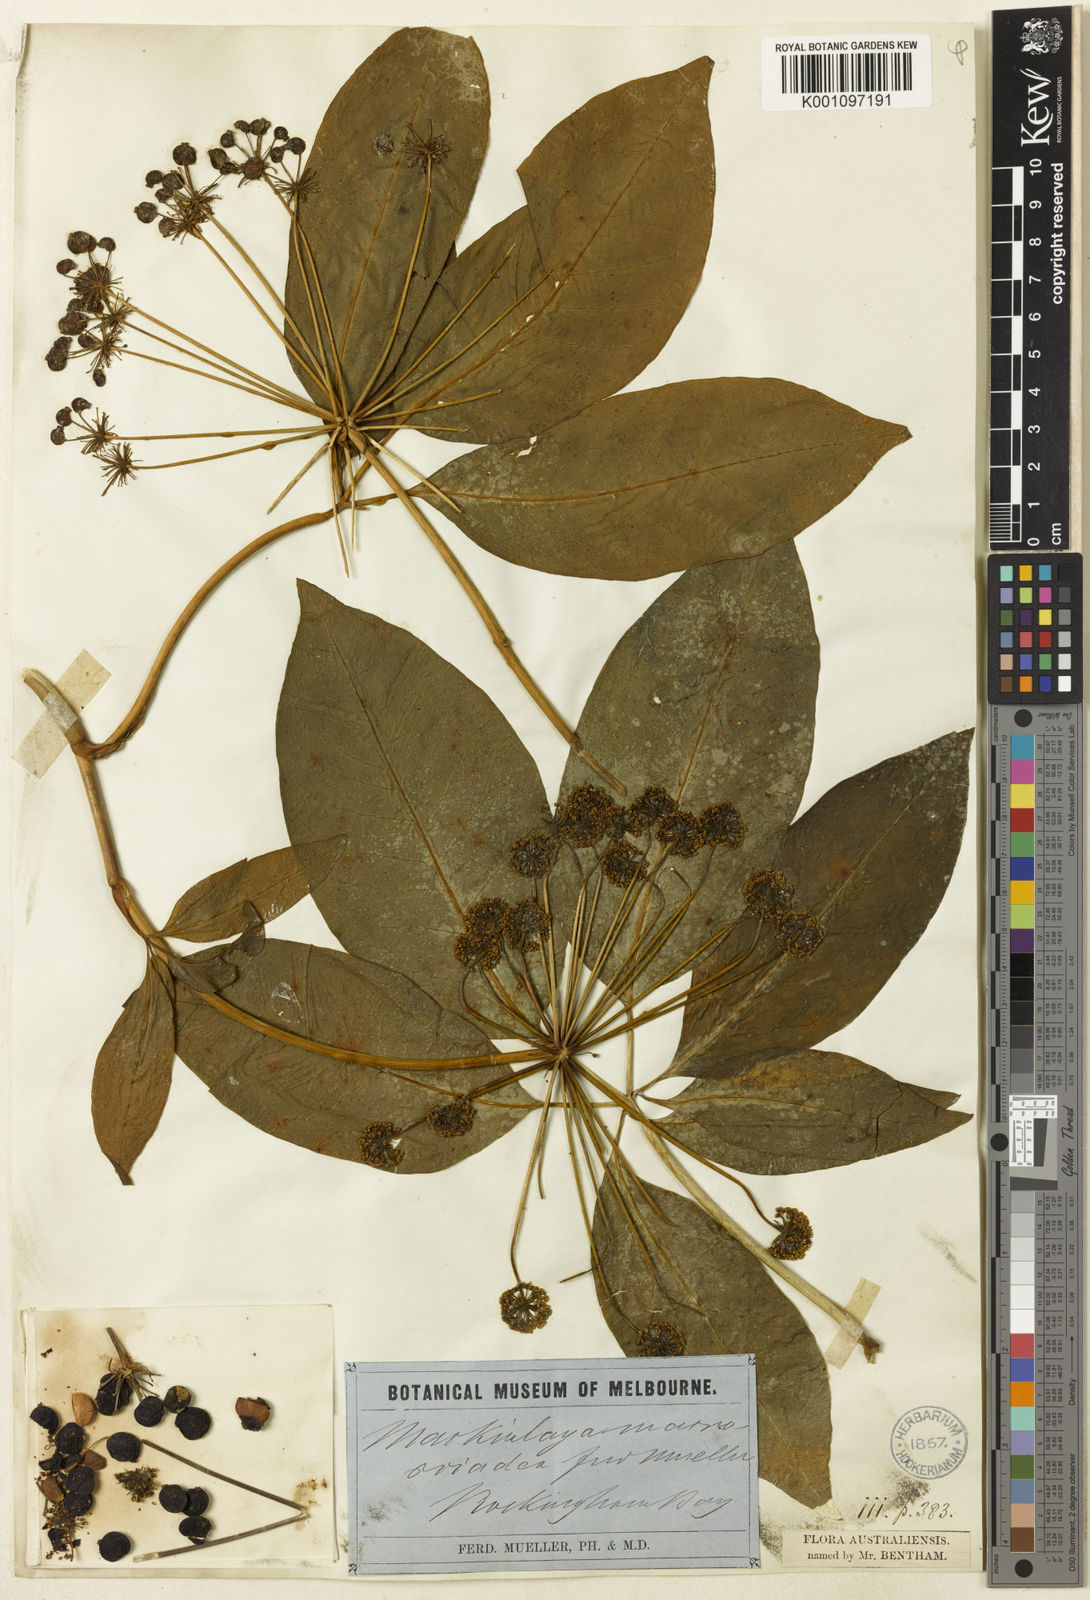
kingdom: Plantae
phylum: Tracheophyta
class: Magnoliopsida
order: Apiales
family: Apiaceae
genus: Mackinlaya
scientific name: Mackinlaya macrosciadea
